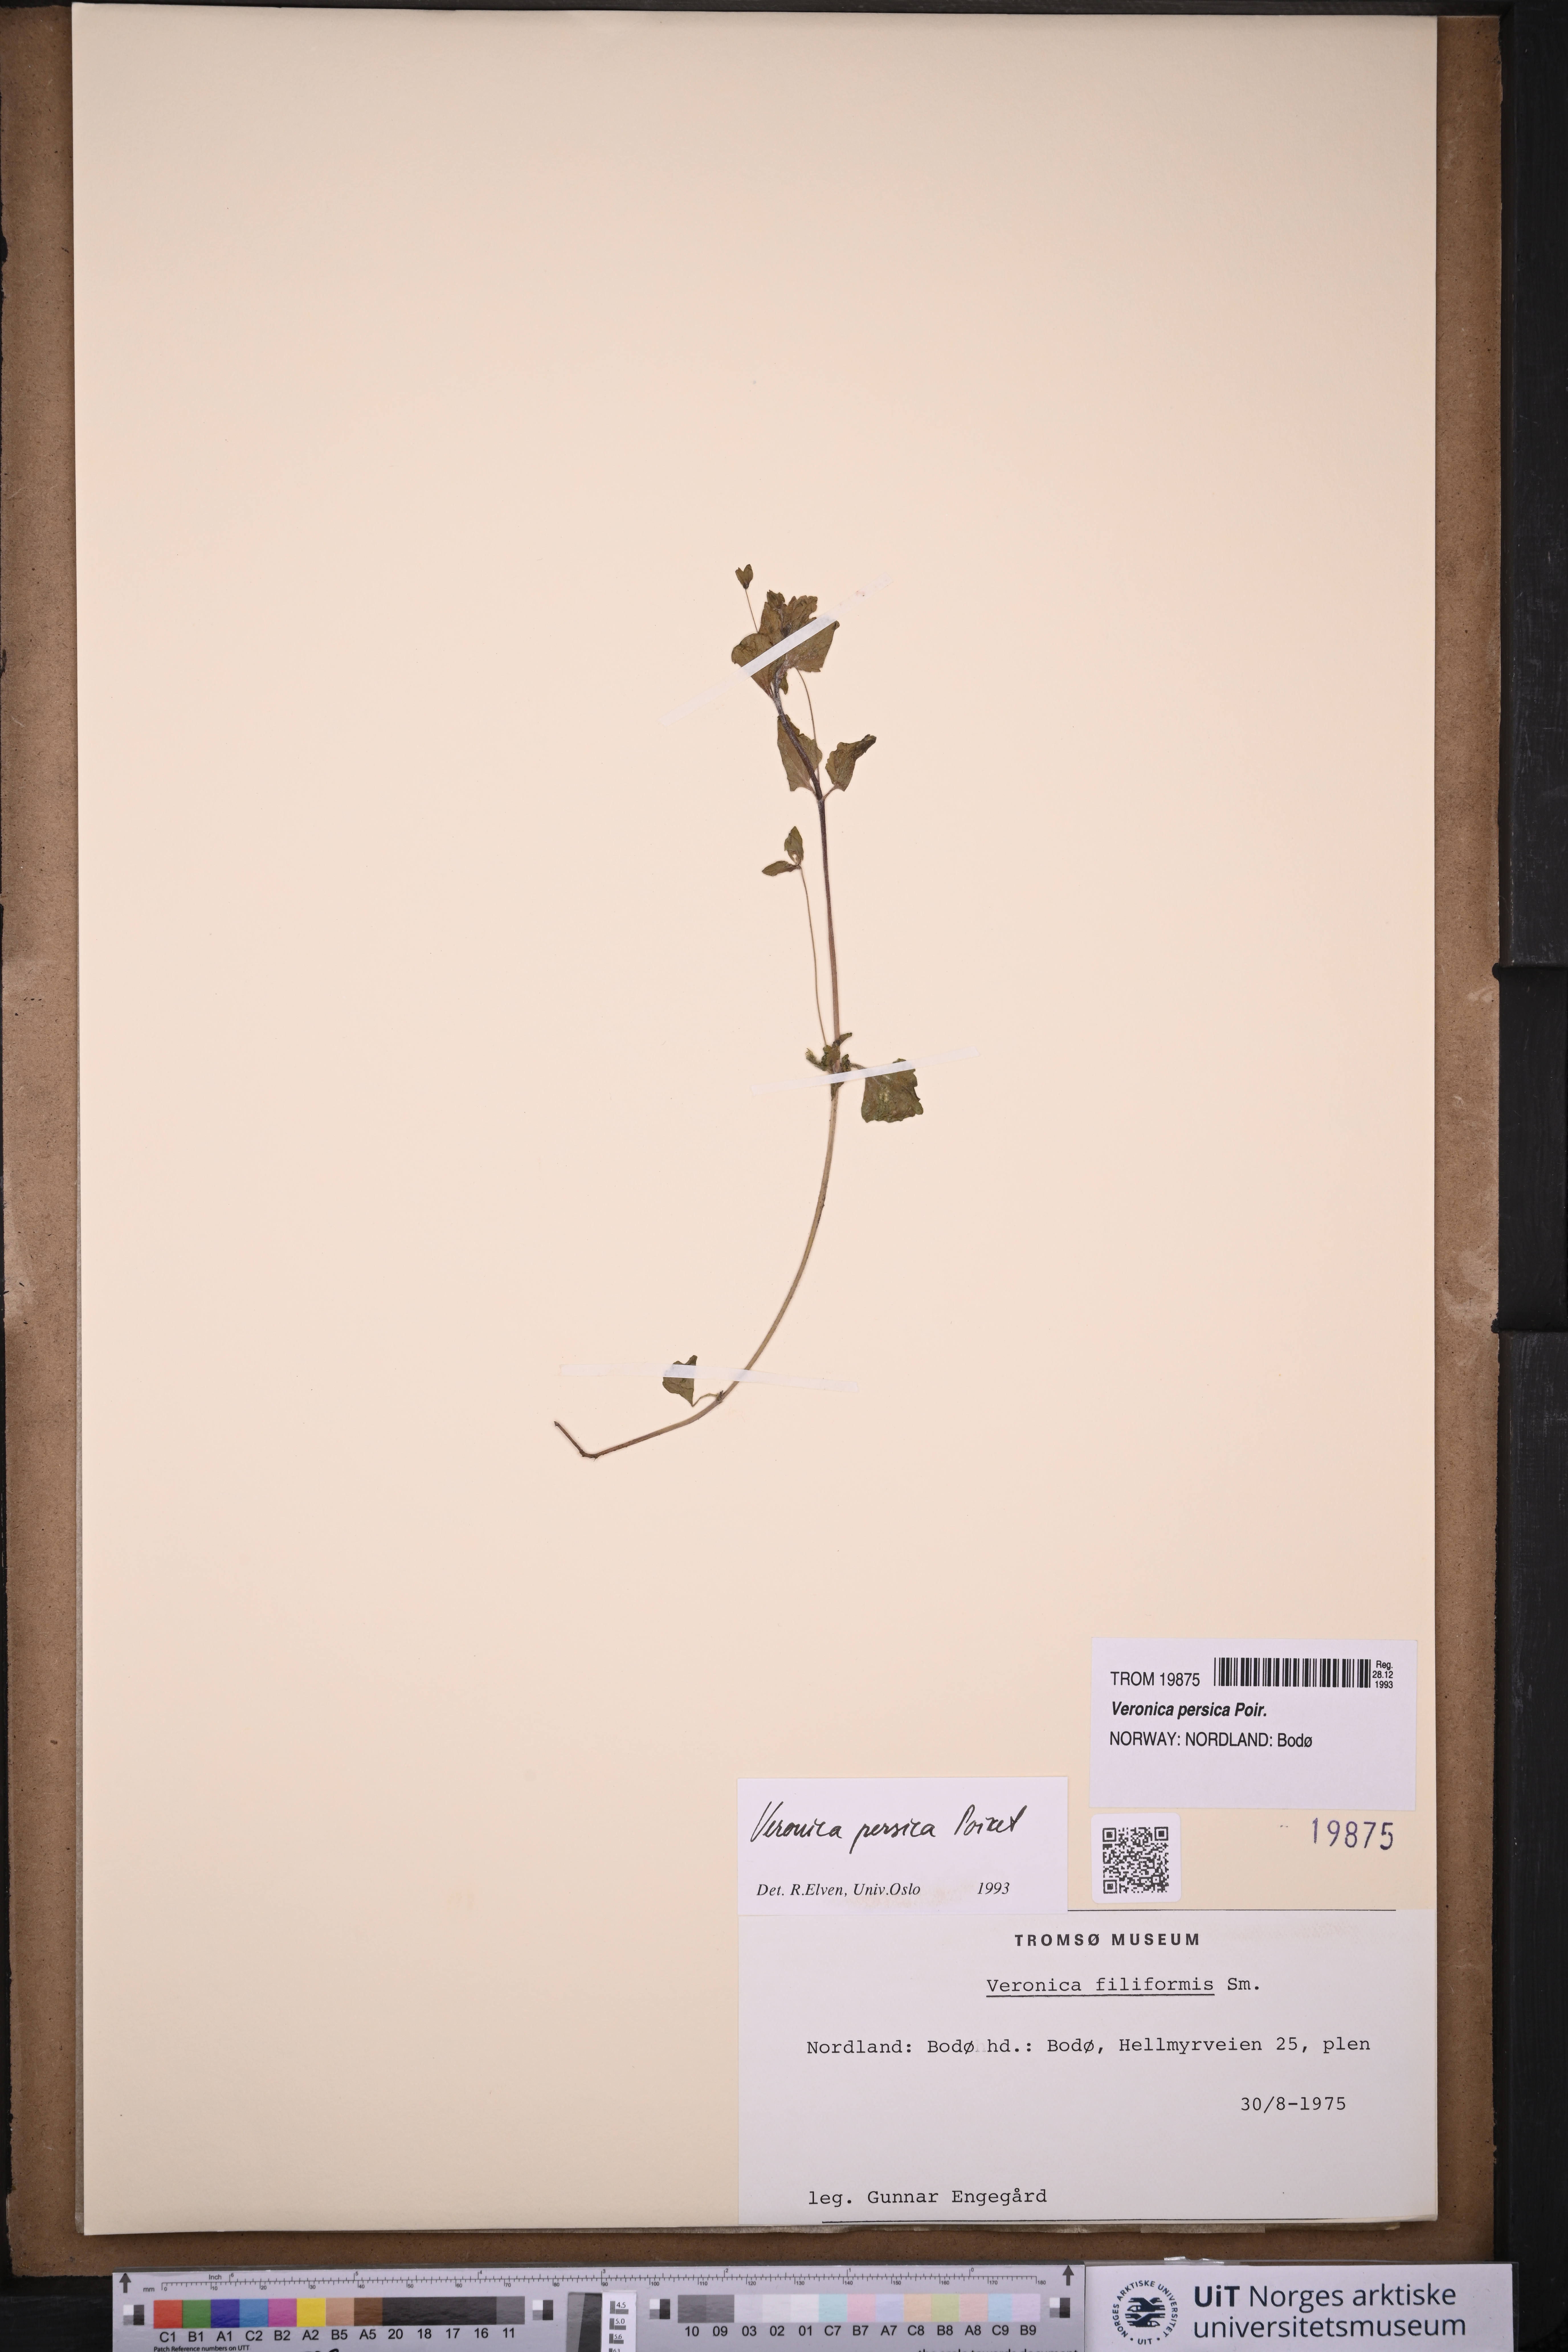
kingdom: Plantae
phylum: Tracheophyta
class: Magnoliopsida
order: Lamiales
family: Plantaginaceae
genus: Veronica
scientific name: Veronica persica
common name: Common field-speedwell
